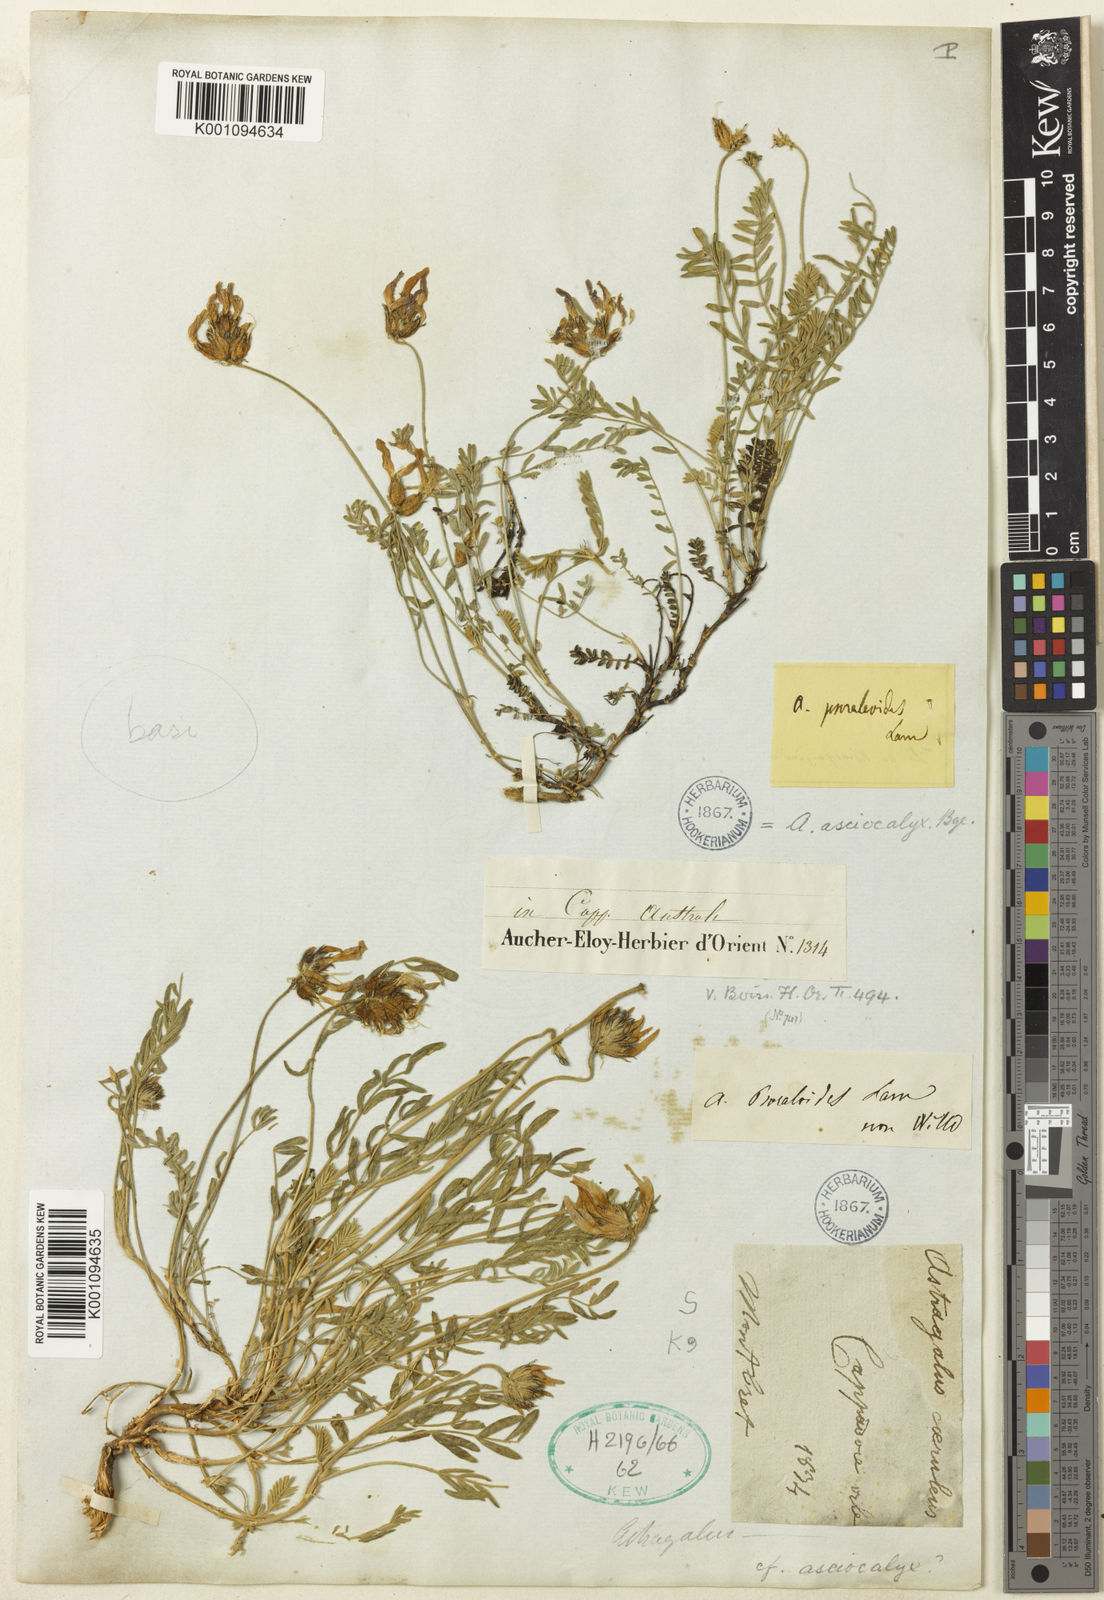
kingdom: Plantae
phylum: Tracheophyta
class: Magnoliopsida
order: Fabales
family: Fabaceae
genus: Astragalus
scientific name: Astragalus
